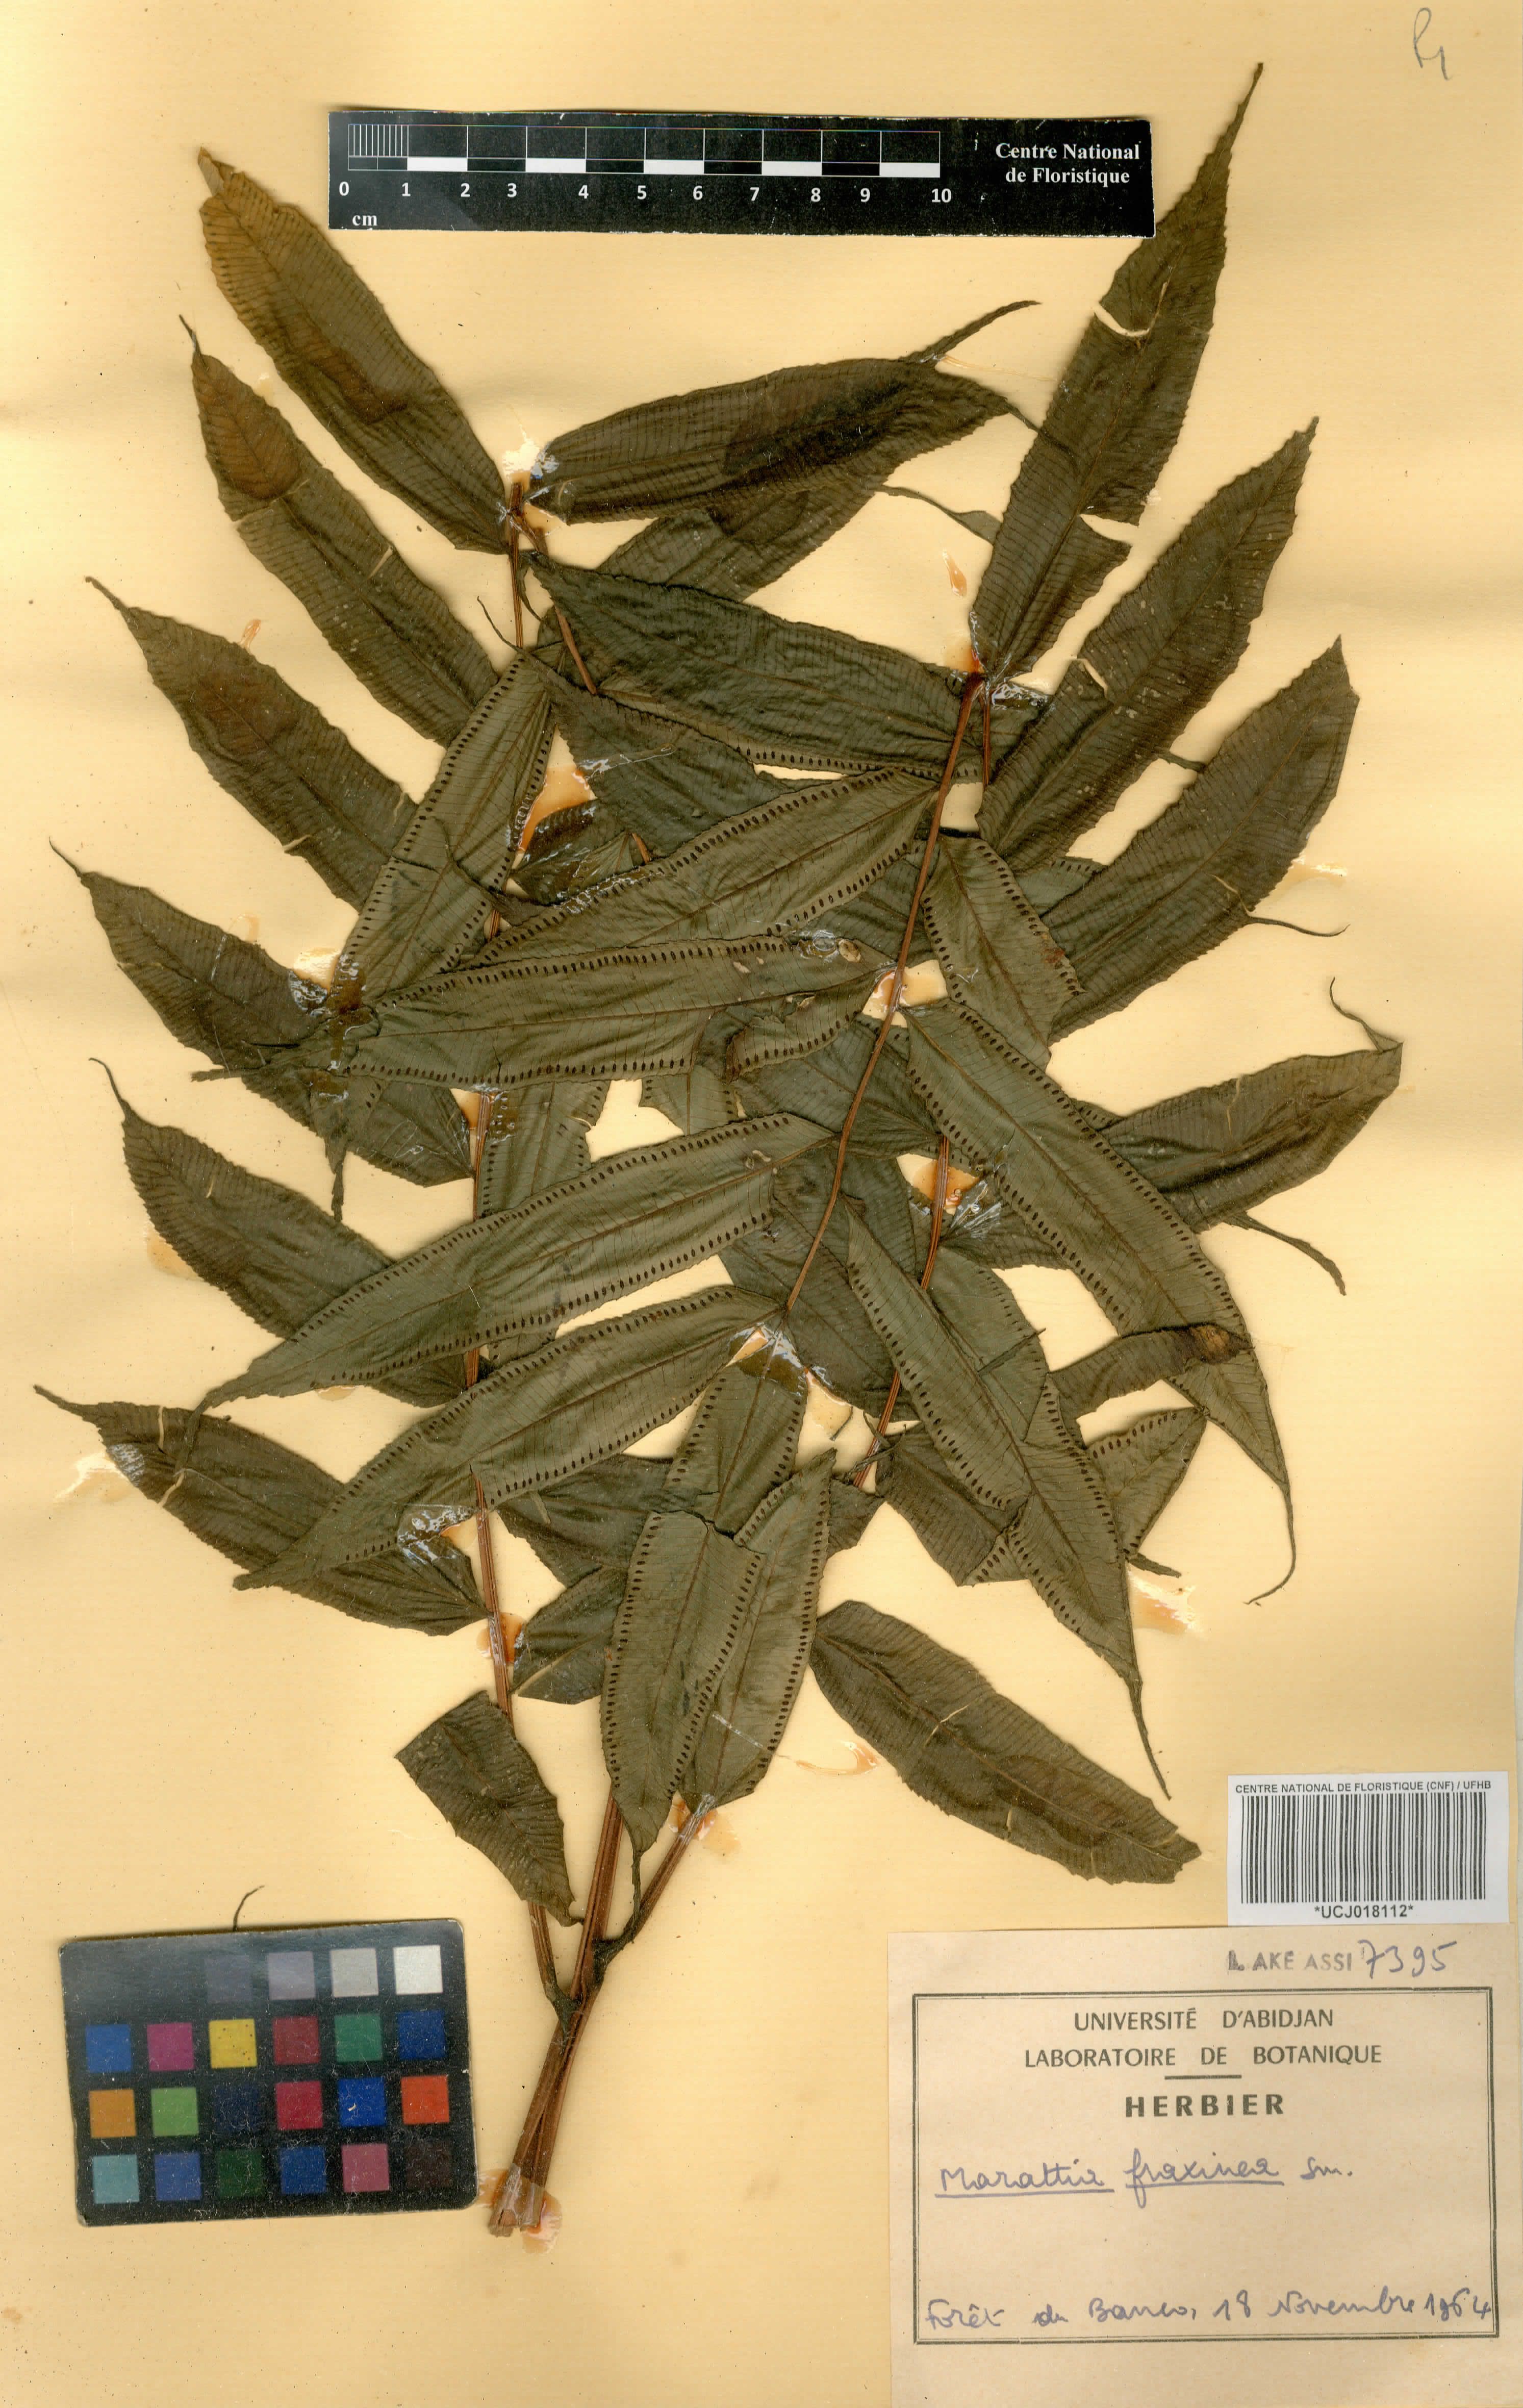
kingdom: Plantae
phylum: Tracheophyta
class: Polypodiopsida
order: Marattiales
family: Marattiaceae
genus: Ptisana
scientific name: Ptisana fraxinea
